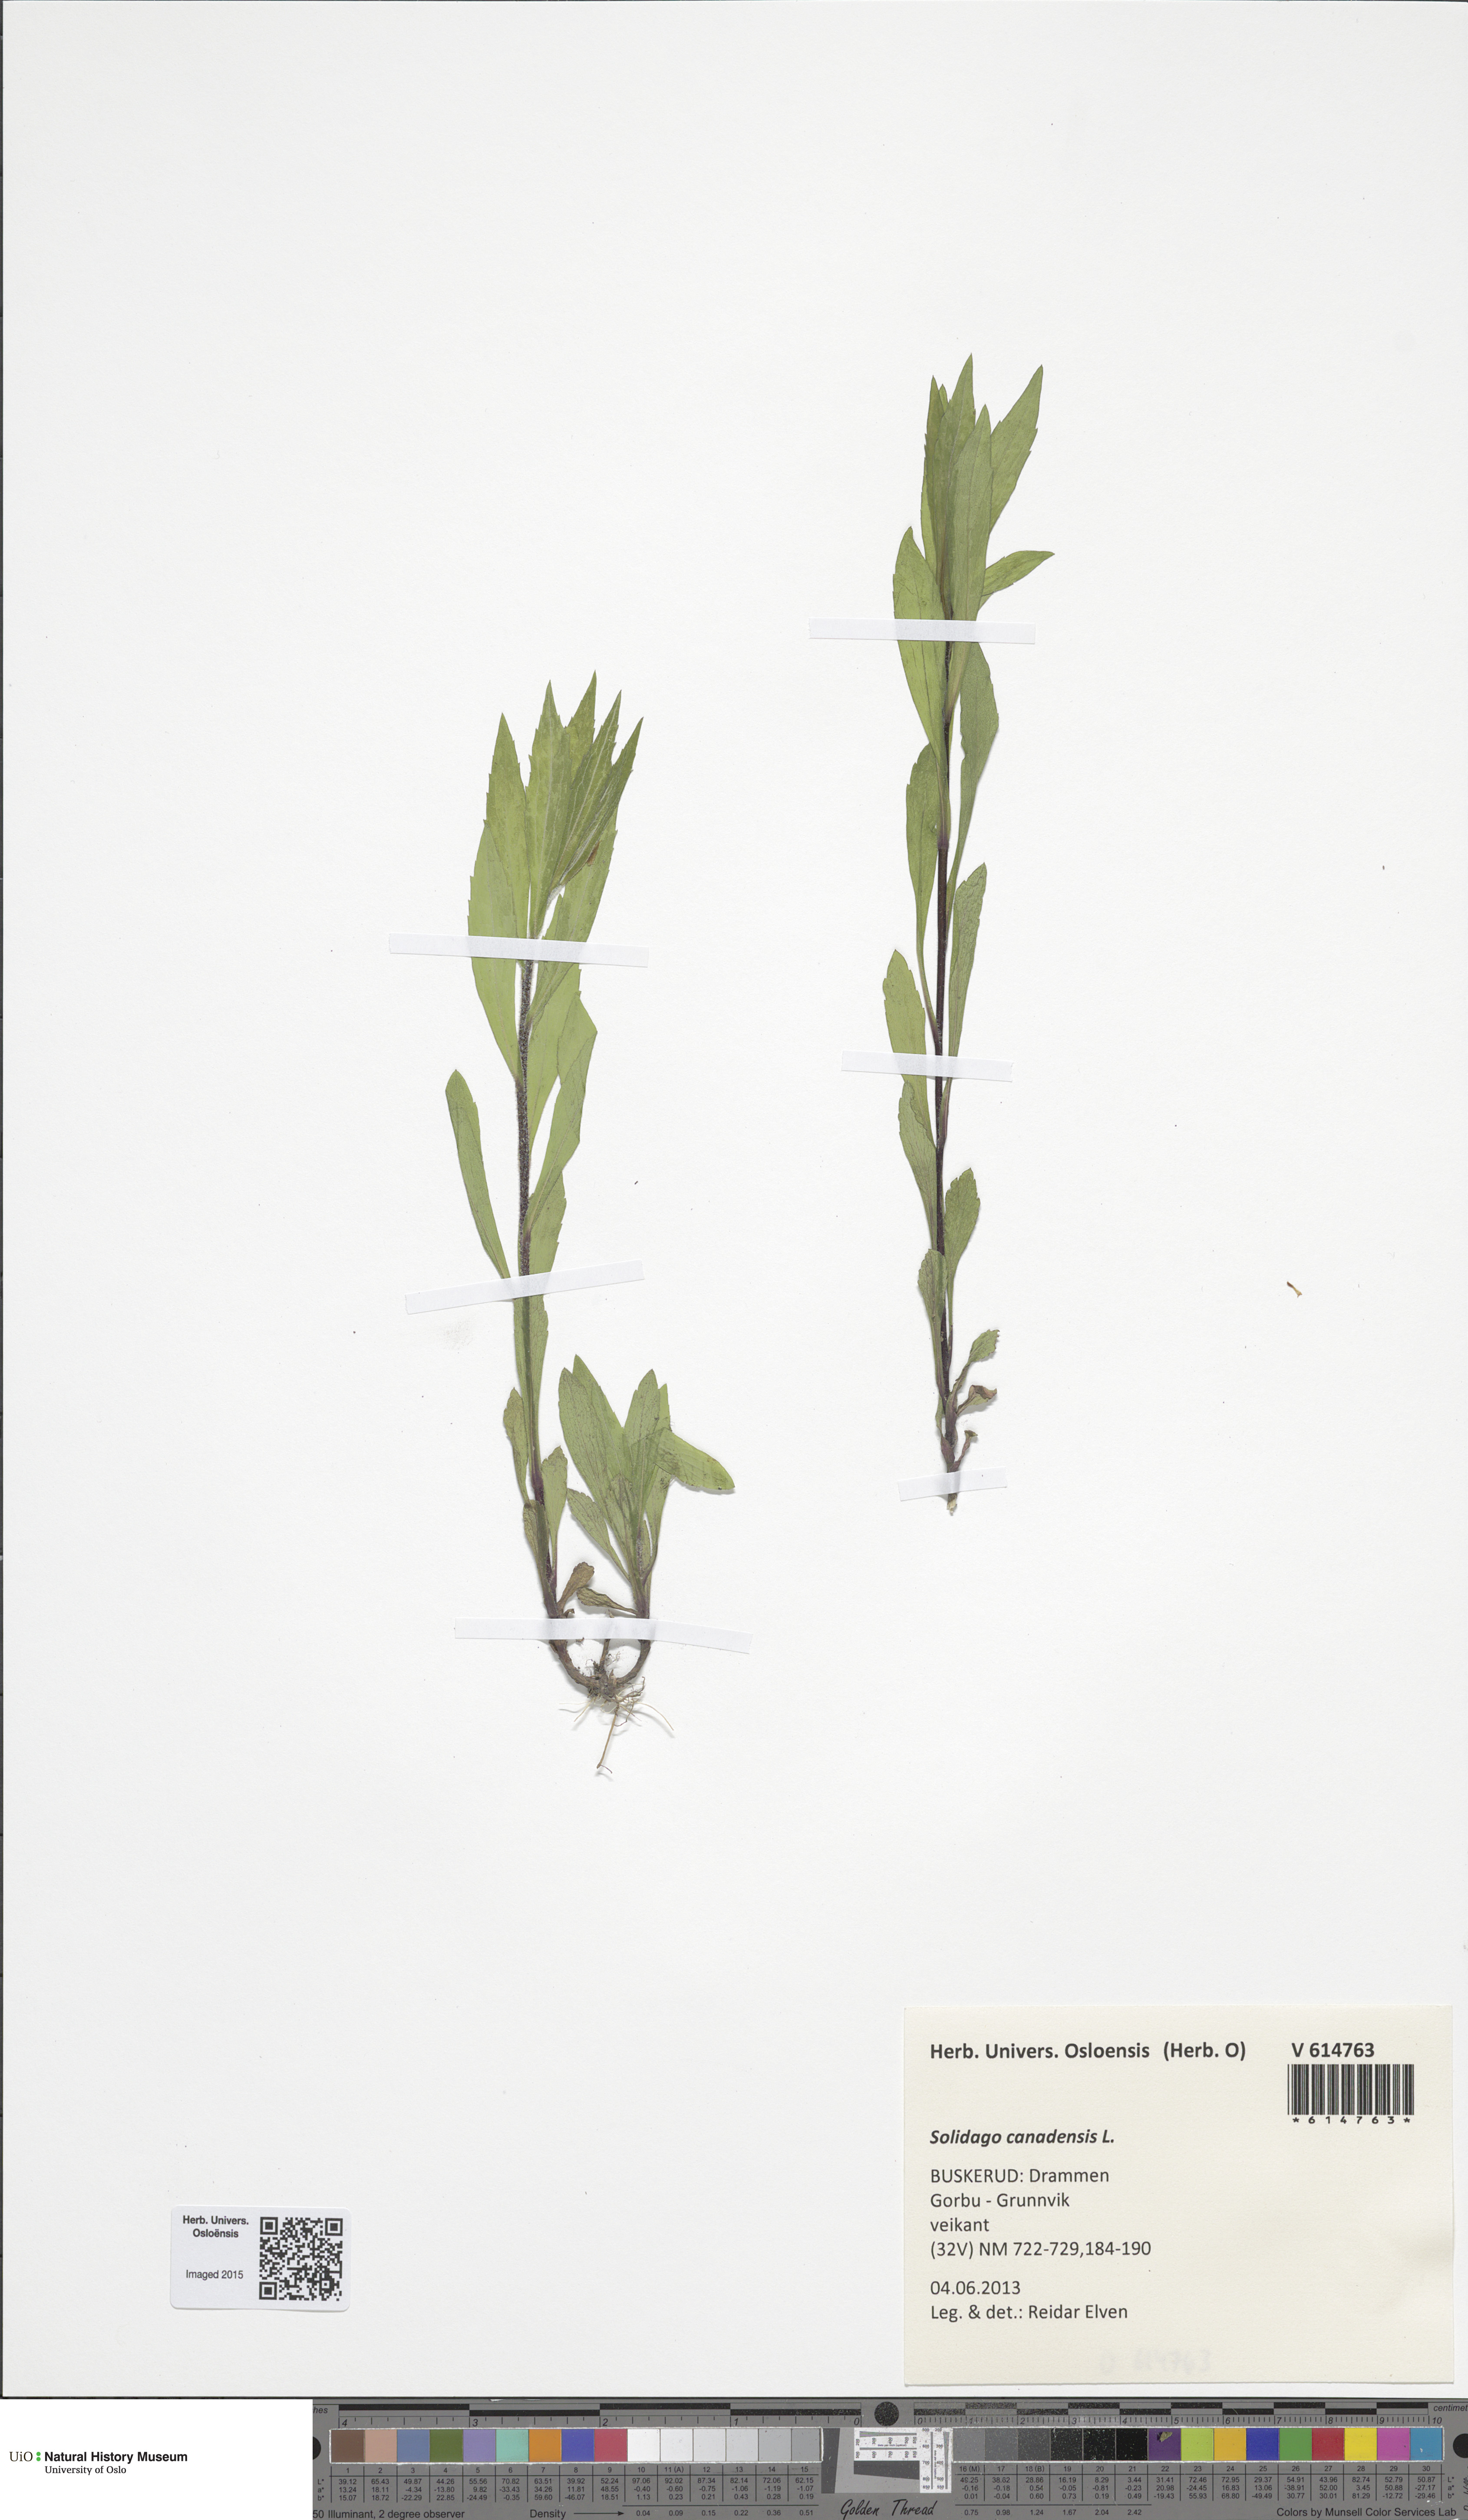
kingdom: Plantae
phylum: Tracheophyta
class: Magnoliopsida
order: Asterales
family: Asteraceae
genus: Solidago
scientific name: Solidago canadensis
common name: Canada goldenrod
